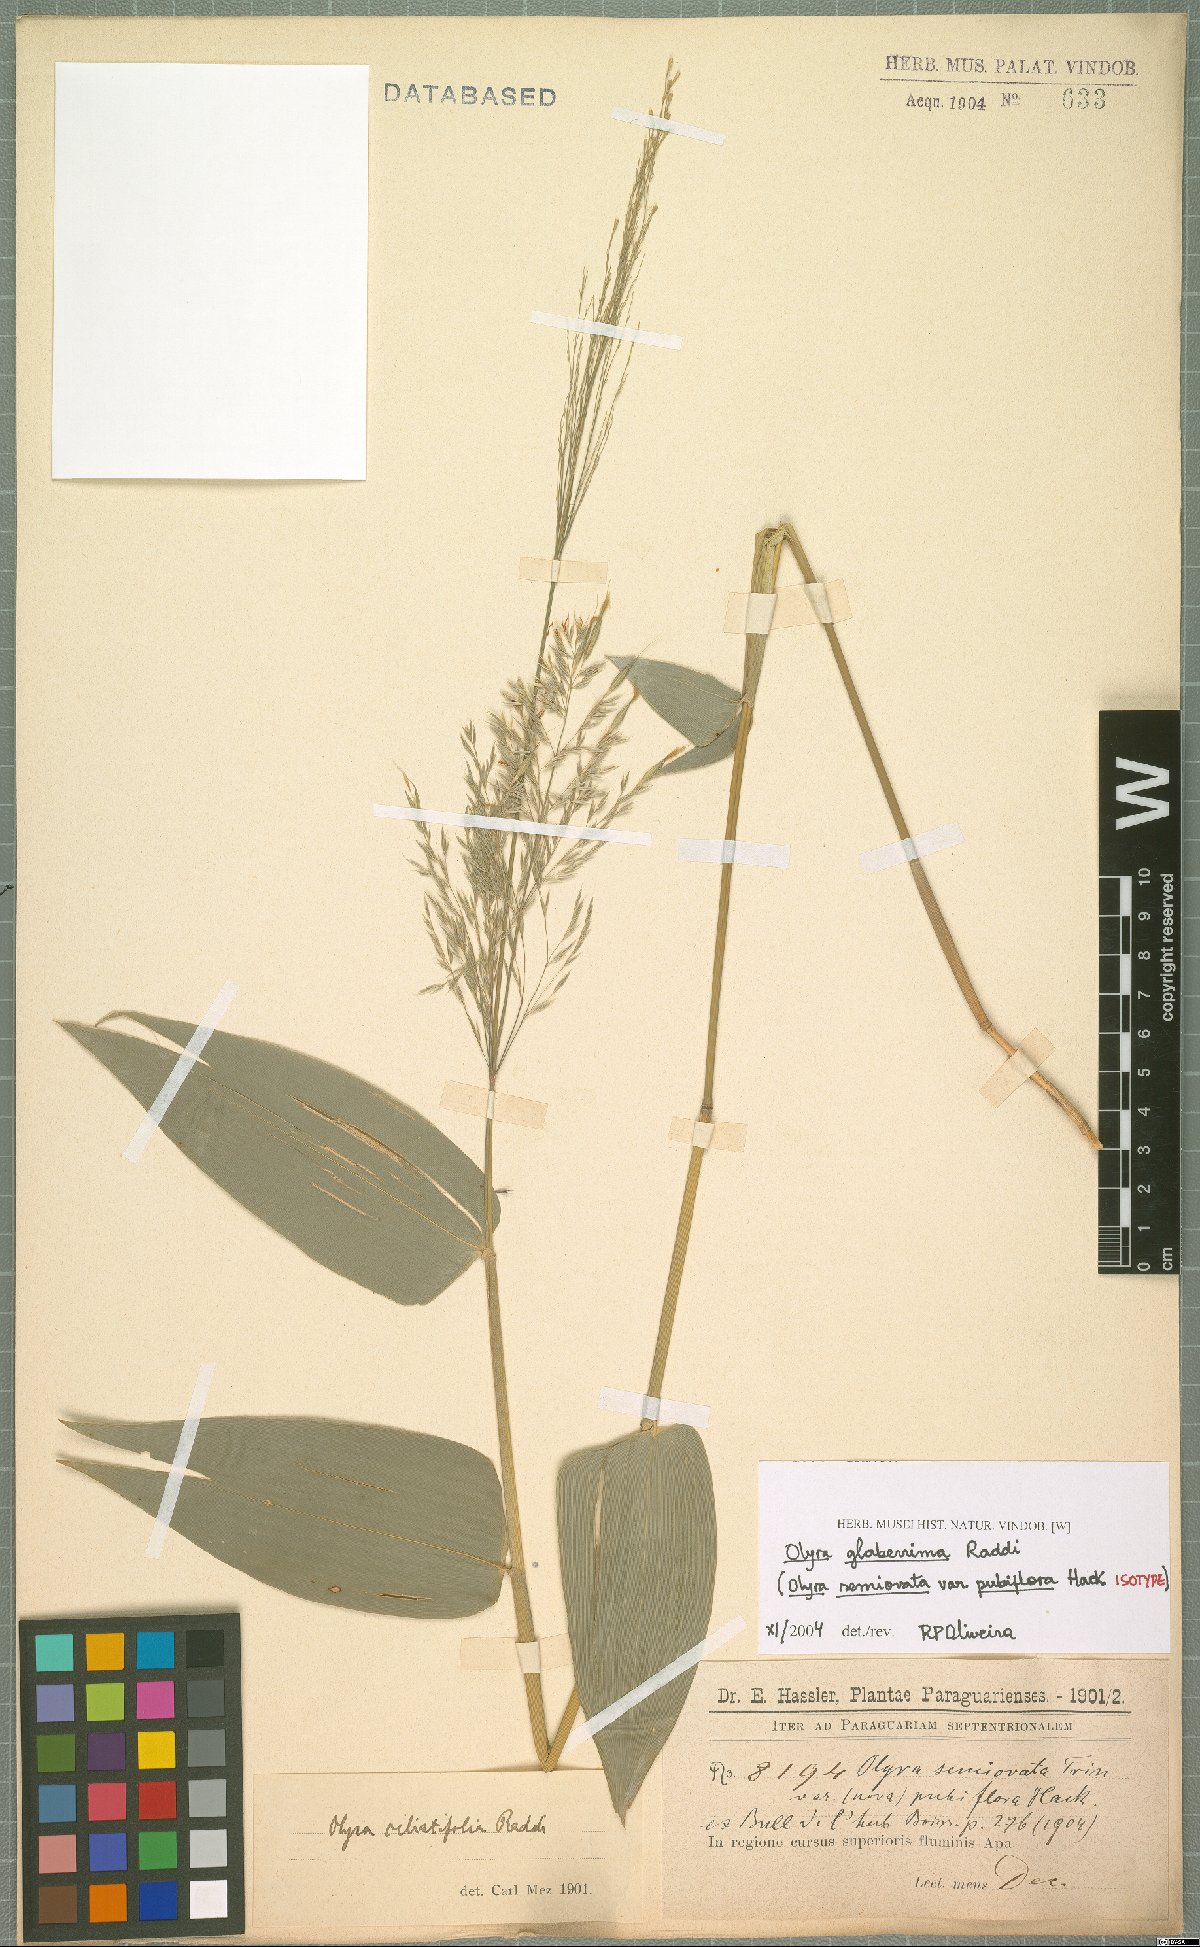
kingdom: Plantae
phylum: Tracheophyta
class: Liliopsida
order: Poales
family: Poaceae
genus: Olyra
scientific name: Olyra glaberrima
